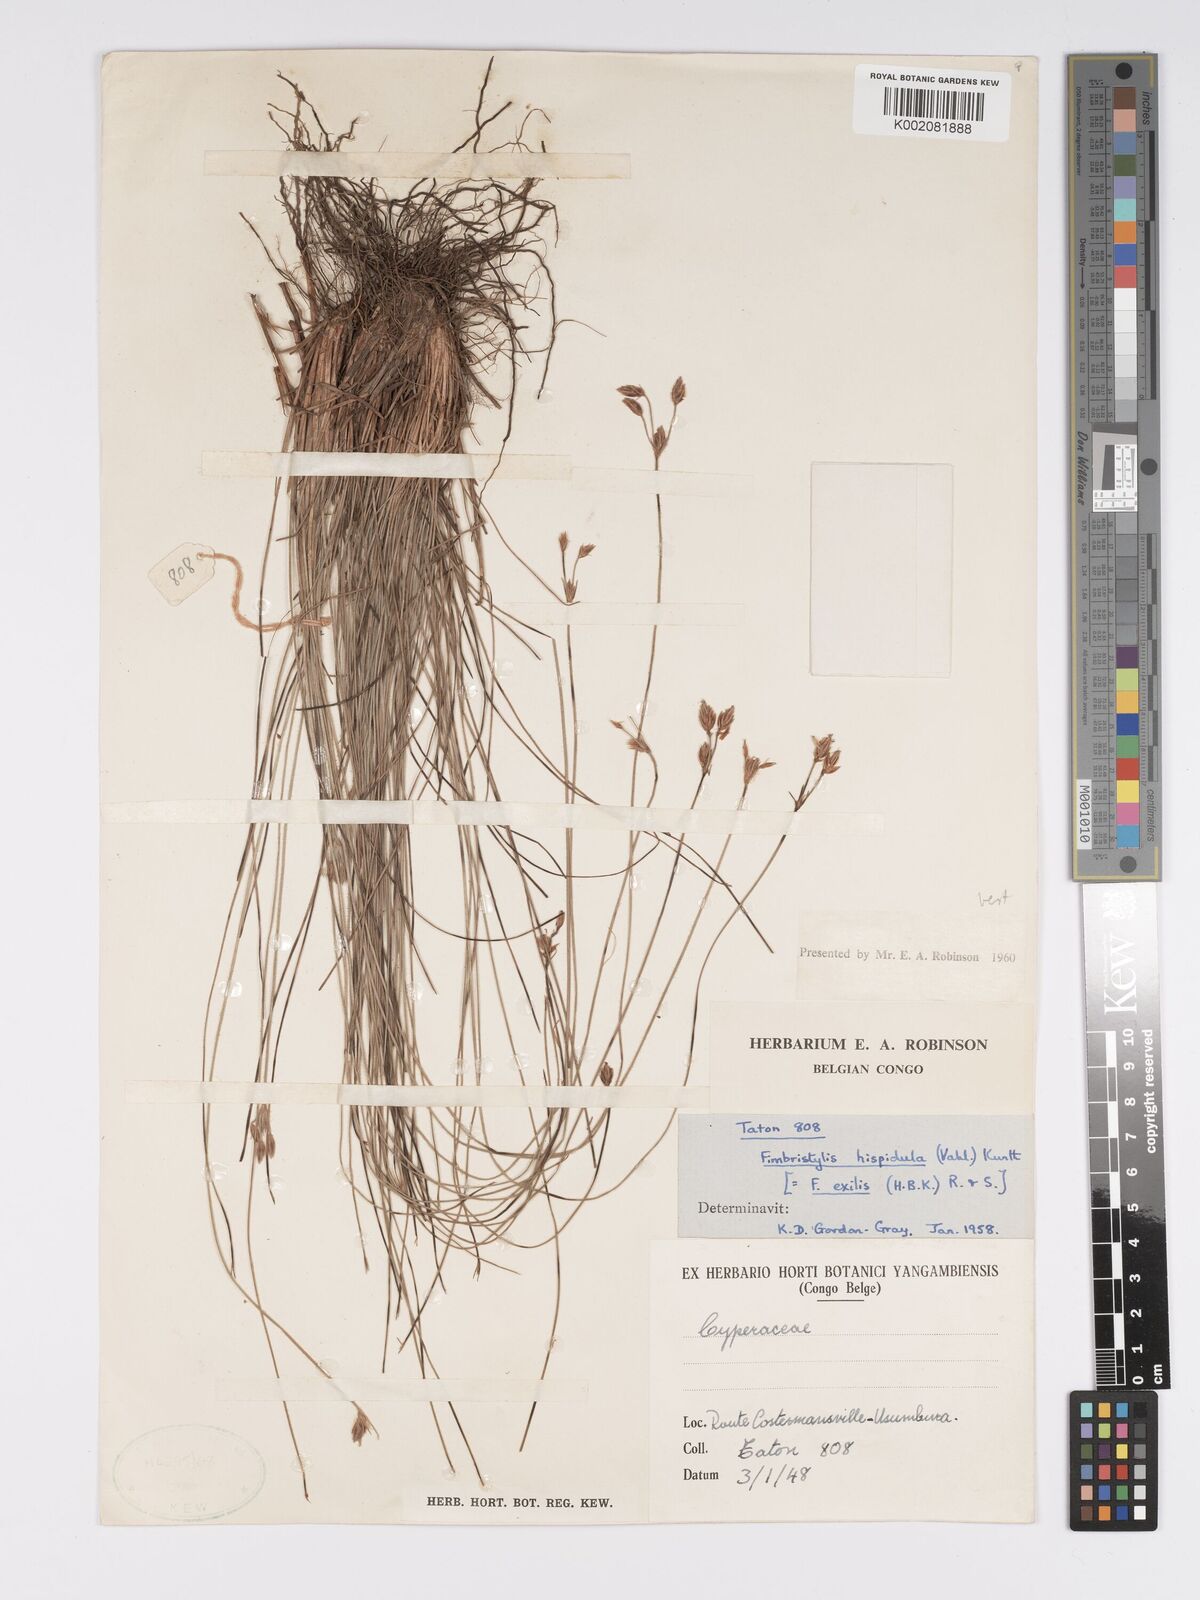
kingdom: Plantae
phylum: Tracheophyta
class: Liliopsida
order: Poales
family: Cyperaceae
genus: Bulbostylis
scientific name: Bulbostylis hispidula
